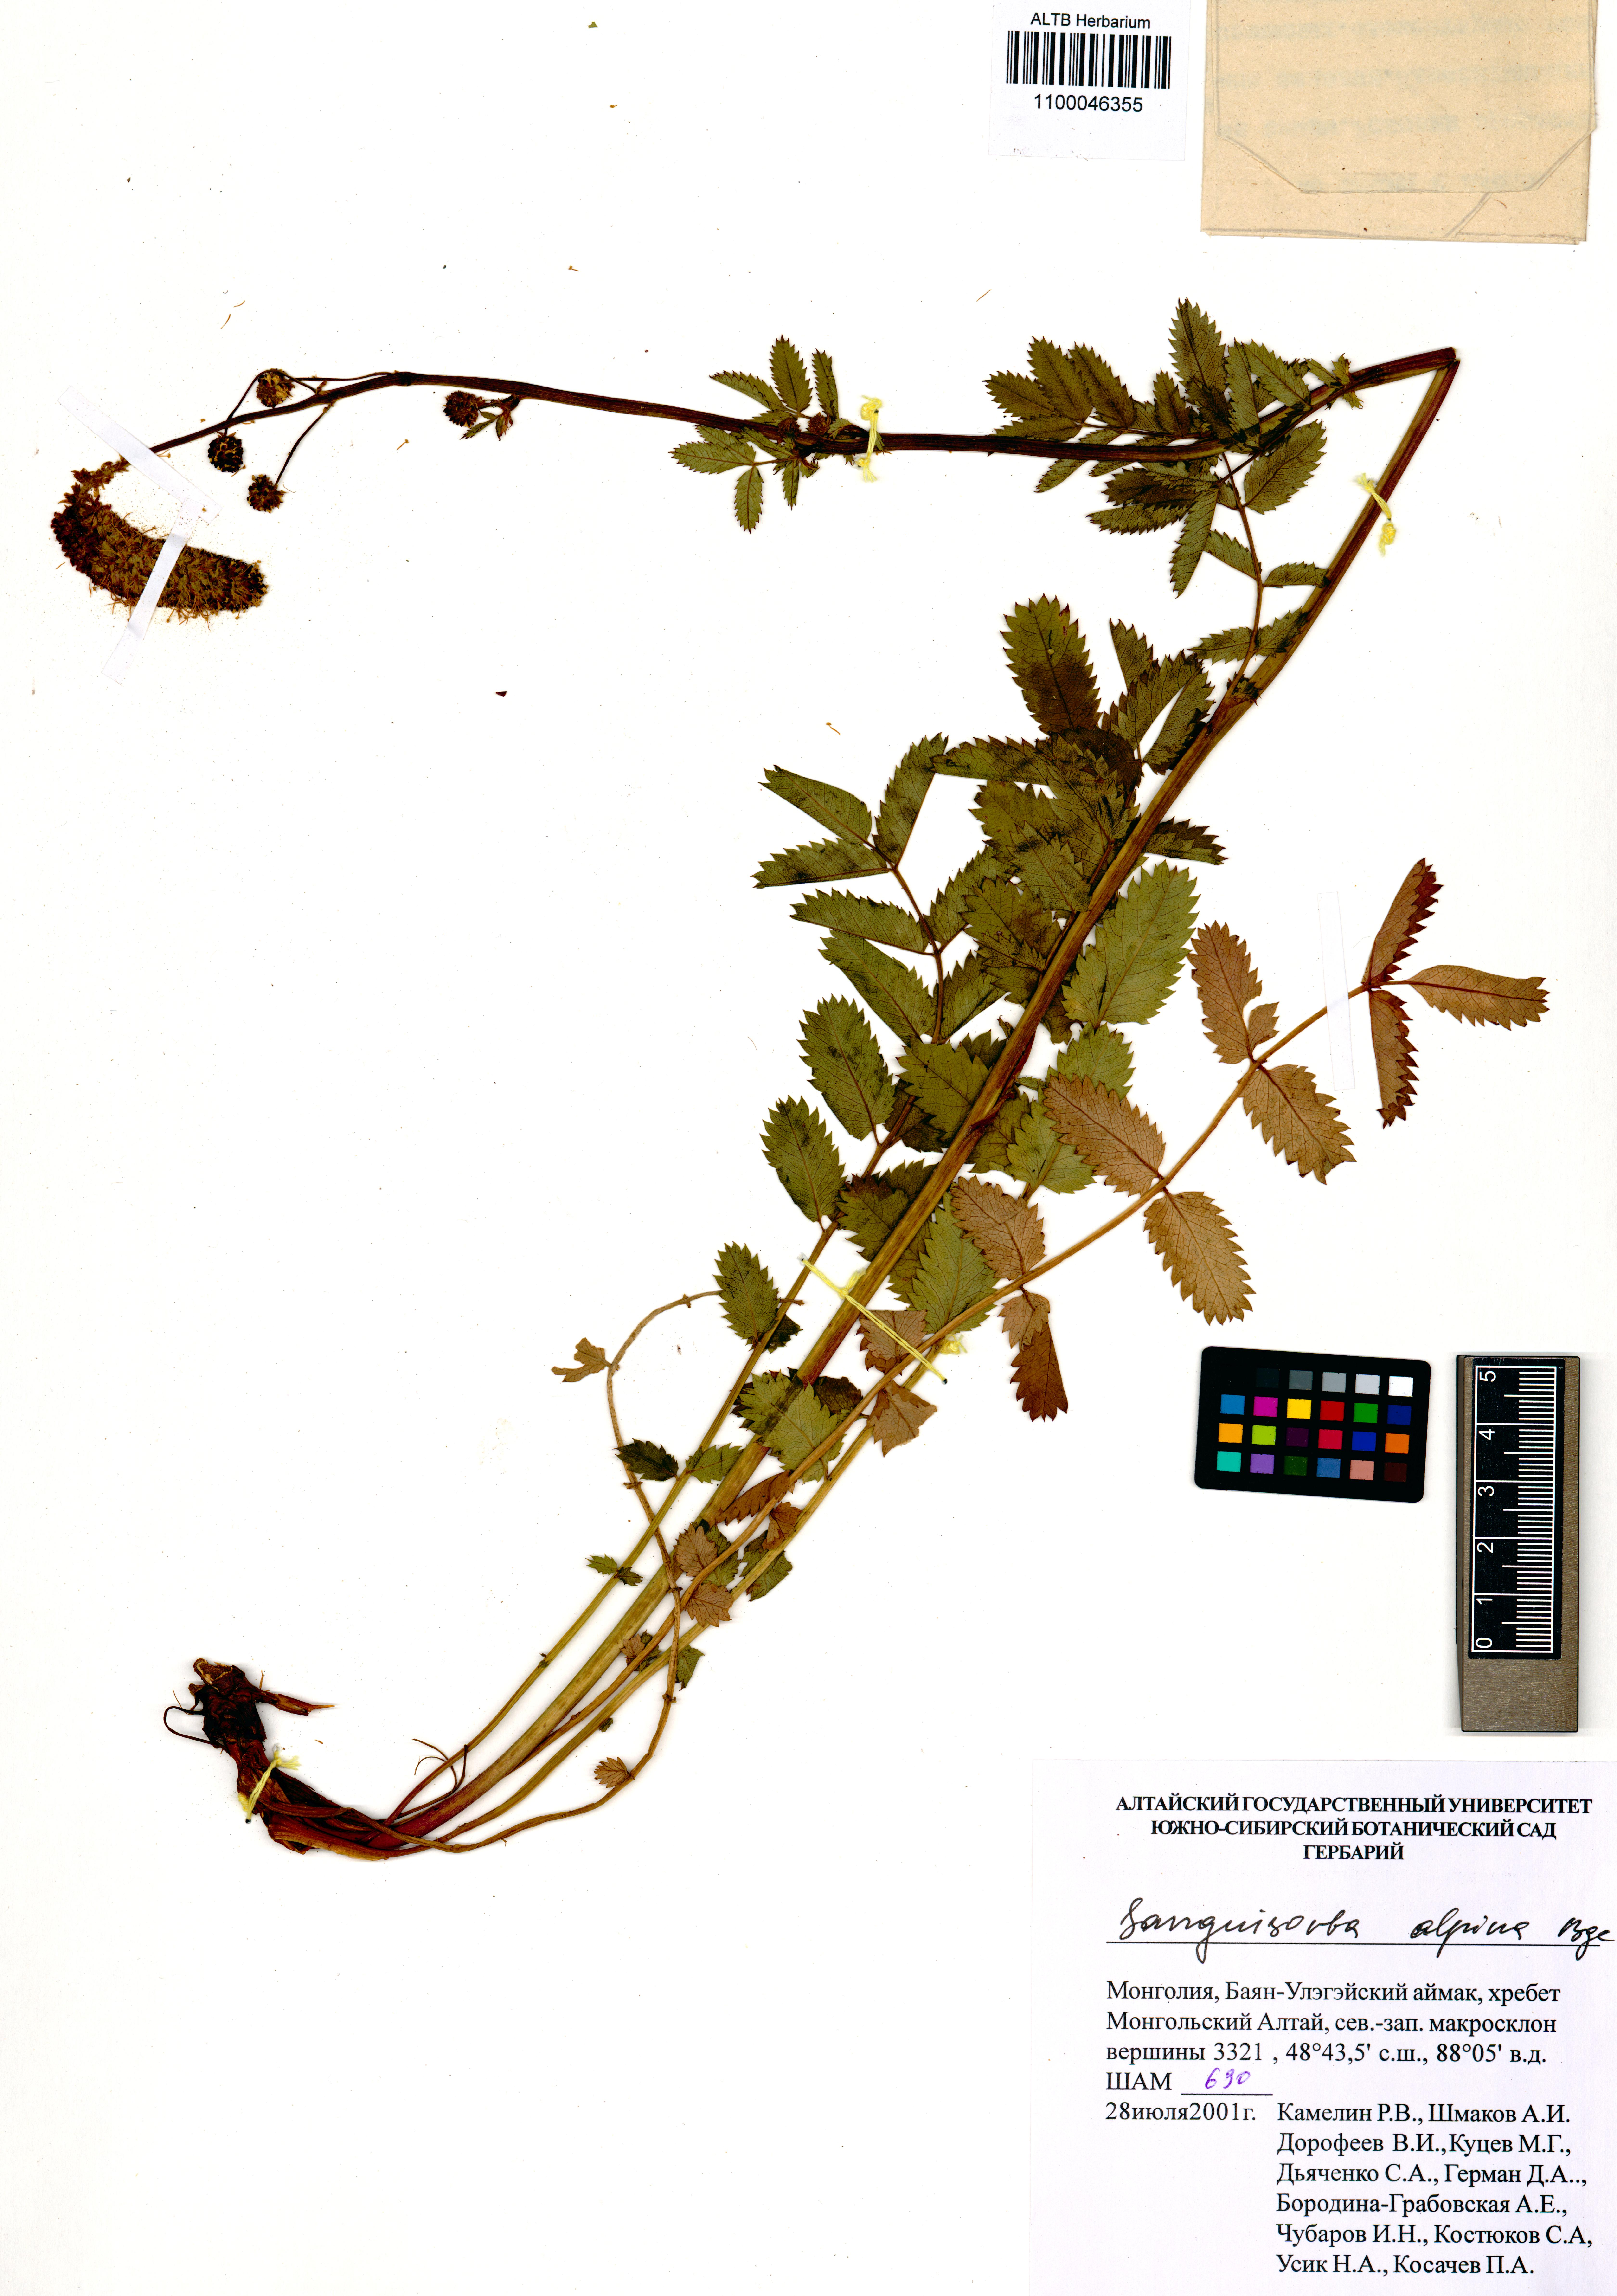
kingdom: Plantae
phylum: Tracheophyta
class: Magnoliopsida
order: Rosales
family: Rosaceae
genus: Sanguisorba
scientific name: Sanguisorba alpina
